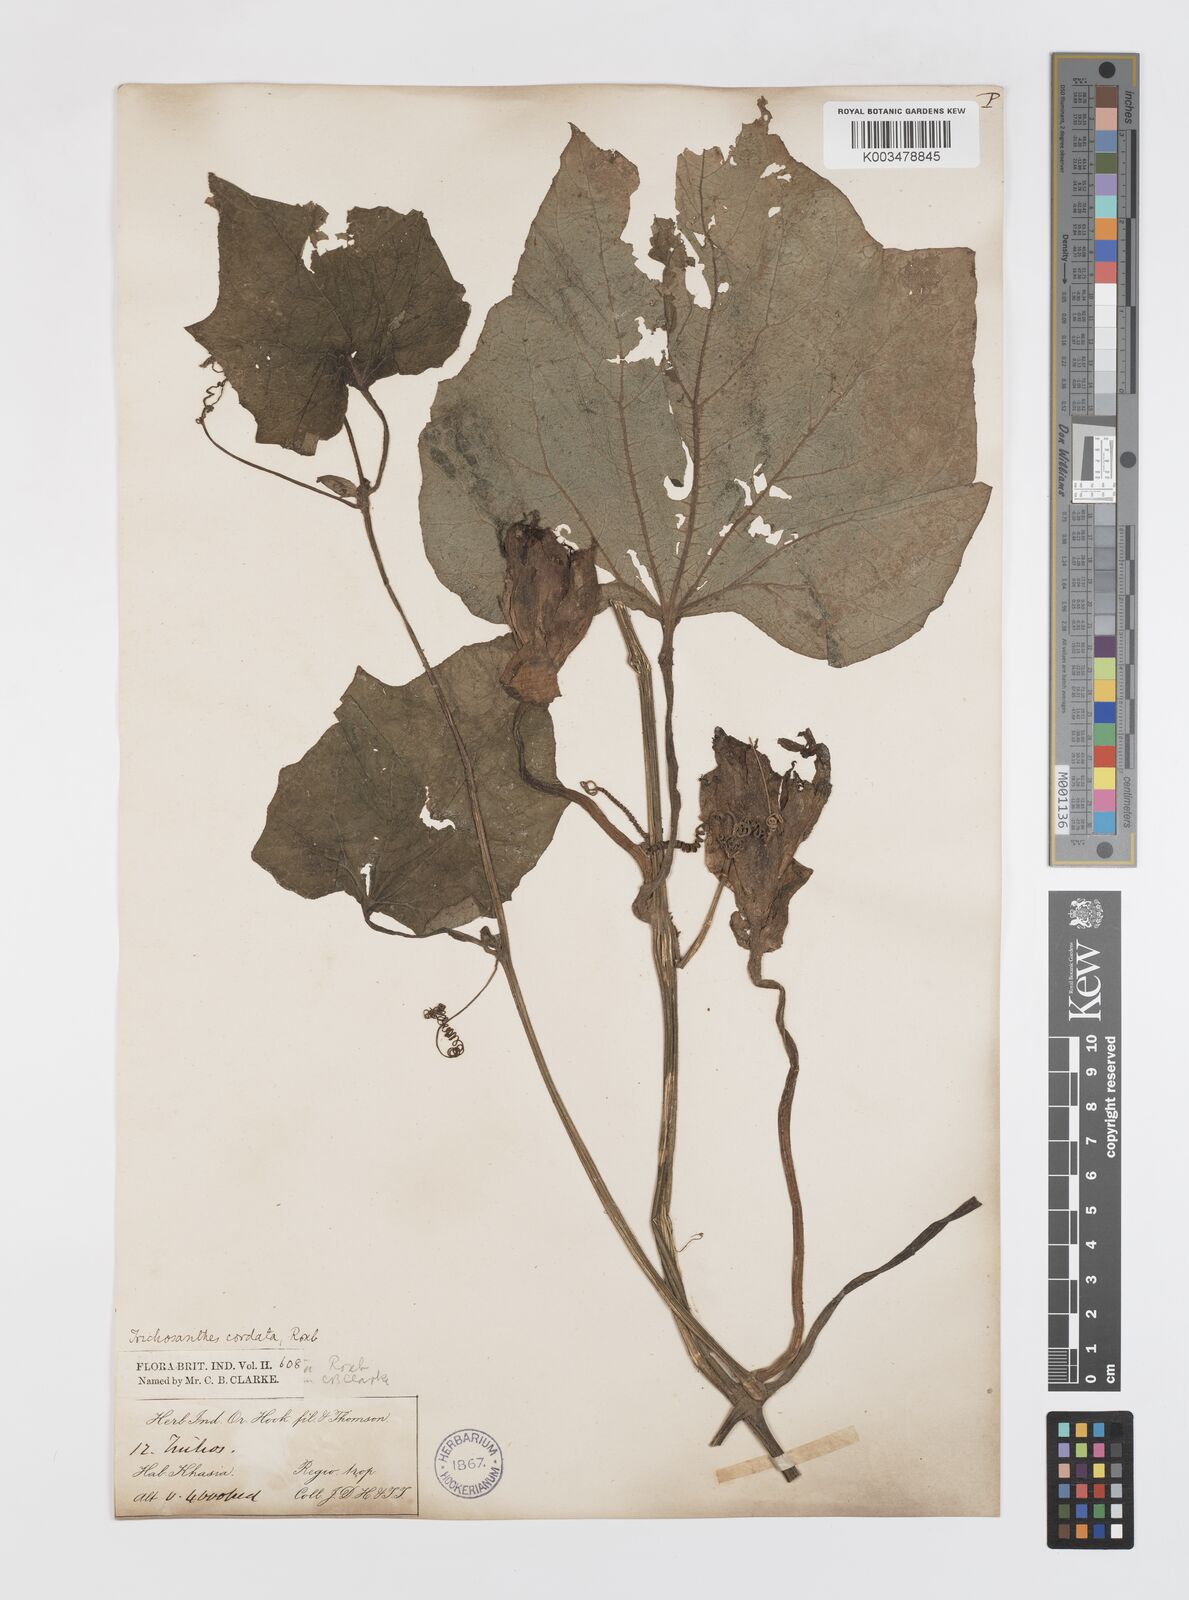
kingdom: Plantae
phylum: Tracheophyta
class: Magnoliopsida
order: Cucurbitales
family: Cucurbitaceae
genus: Trichosanthes
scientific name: Trichosanthes cordata
